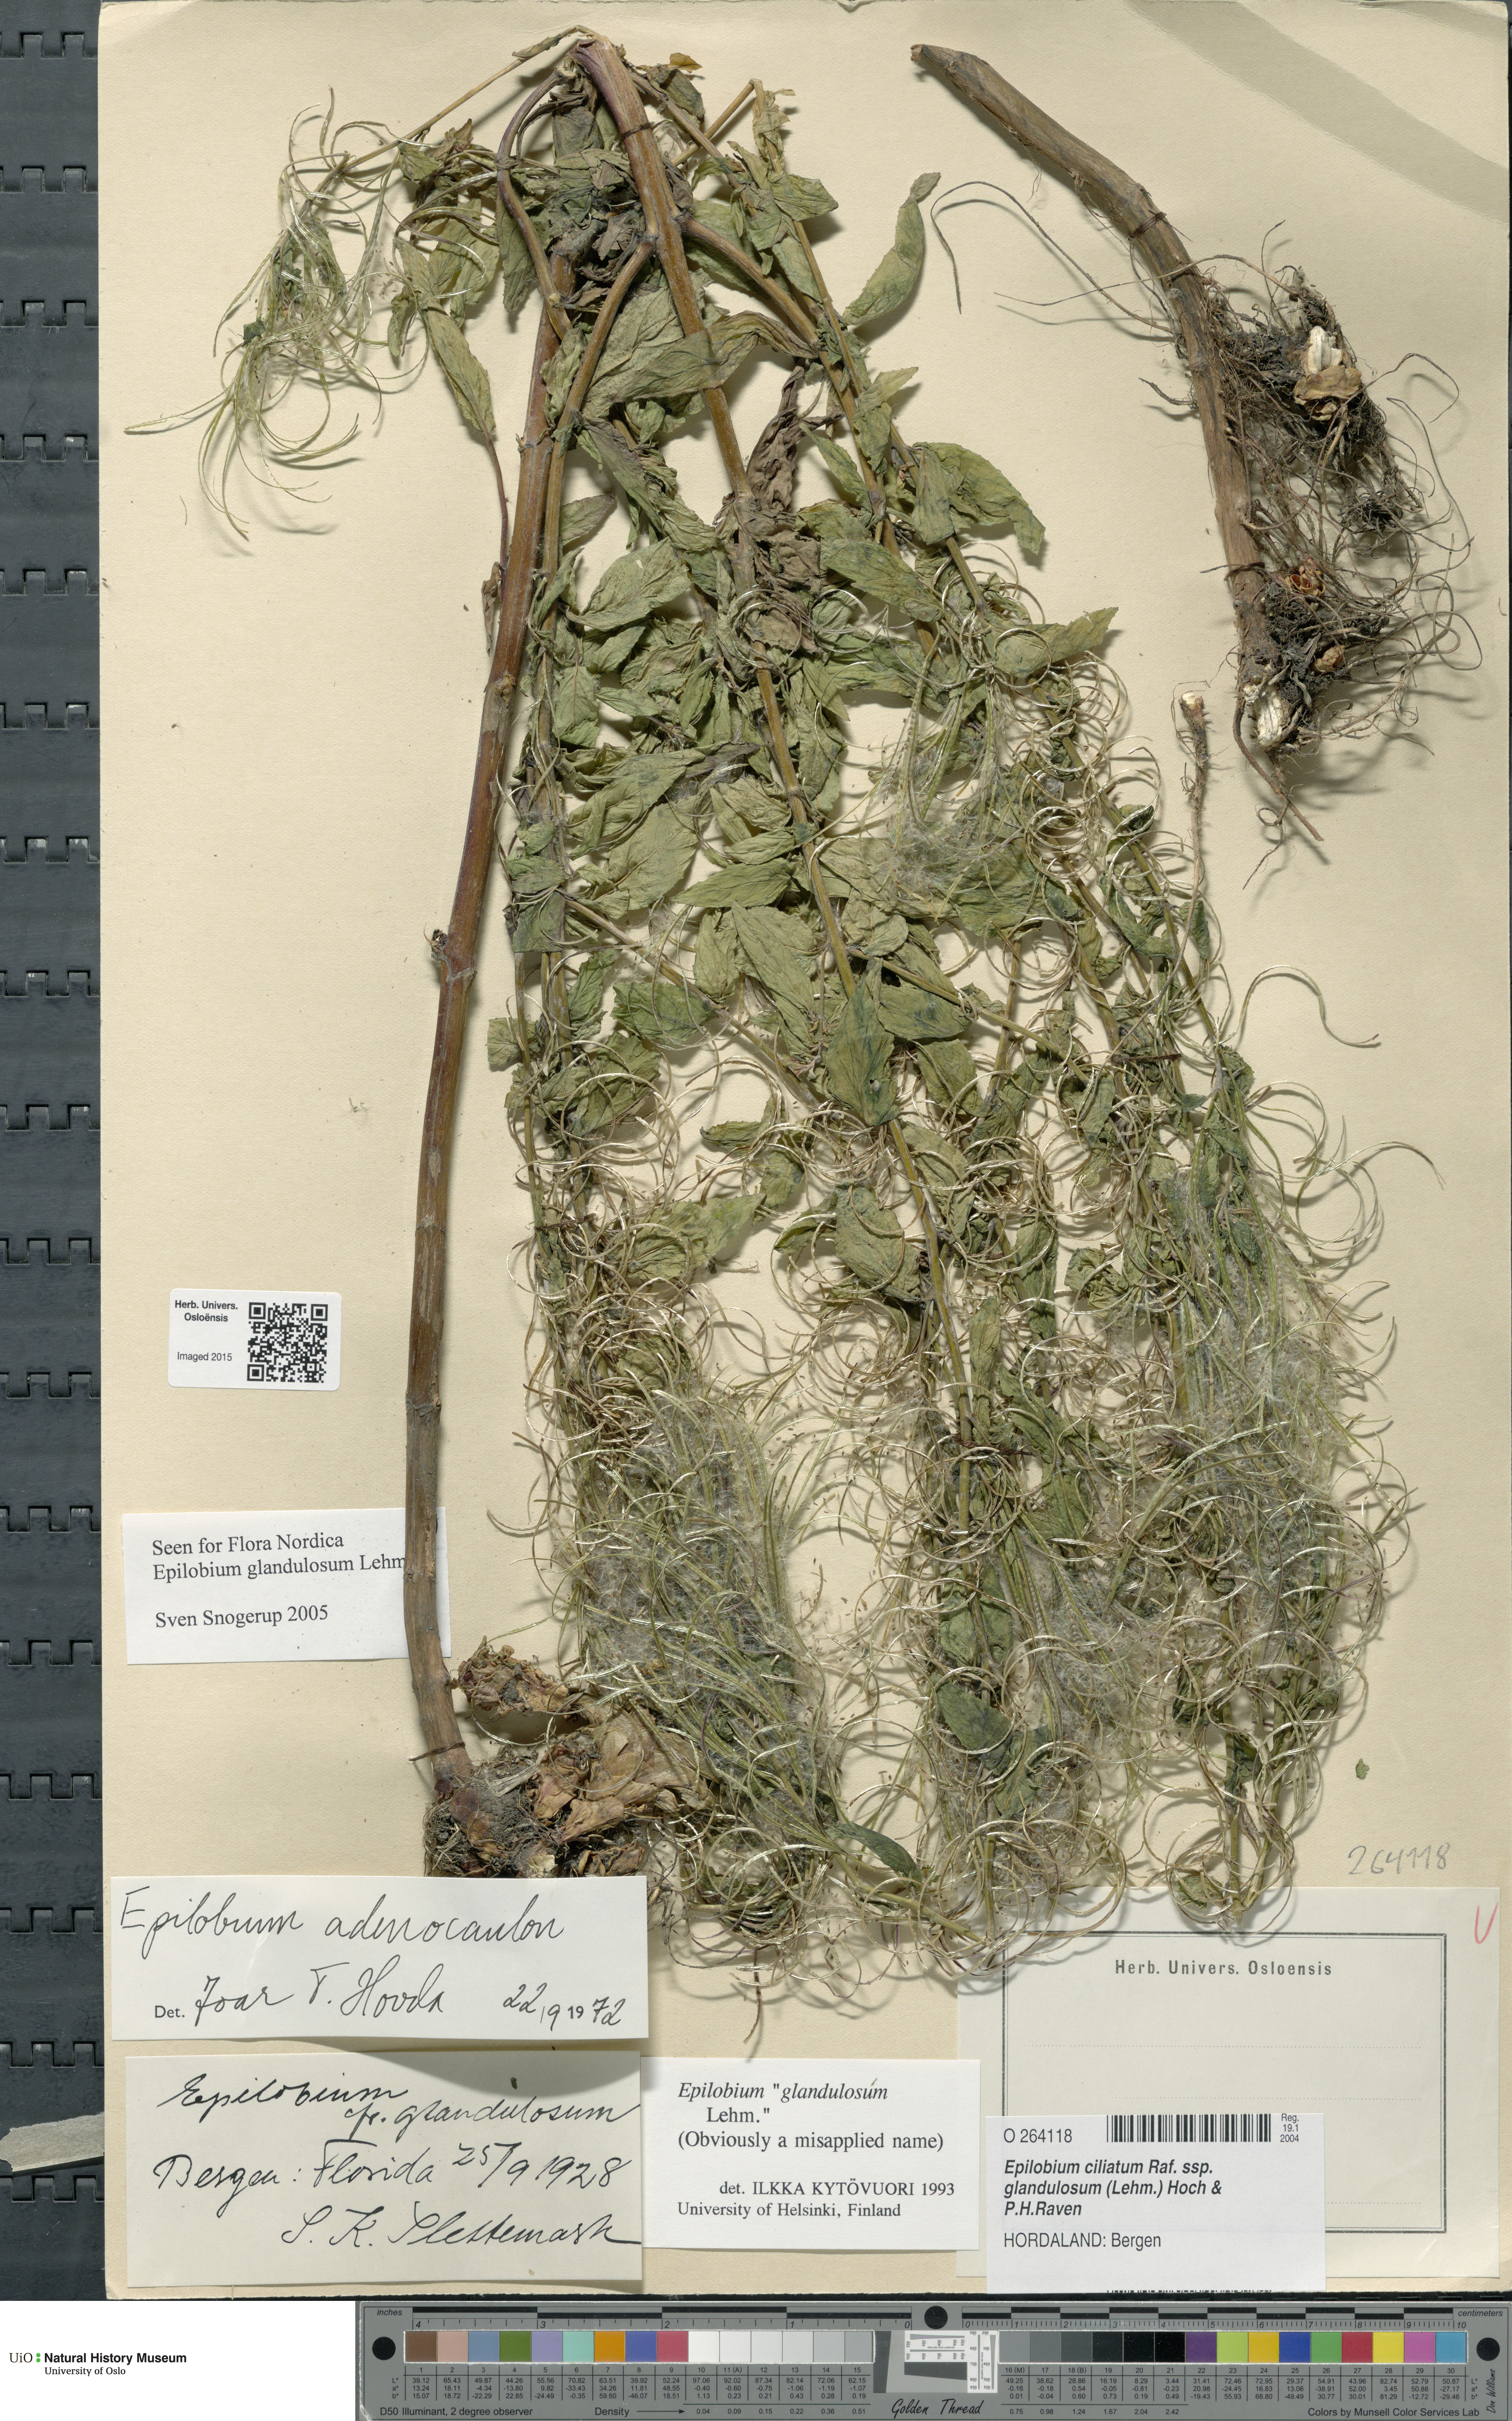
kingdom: Plantae
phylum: Tracheophyta
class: Magnoliopsida
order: Myrtales
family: Onagraceae
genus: Epilobium
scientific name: Epilobium ciliatum
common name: American willowherb
